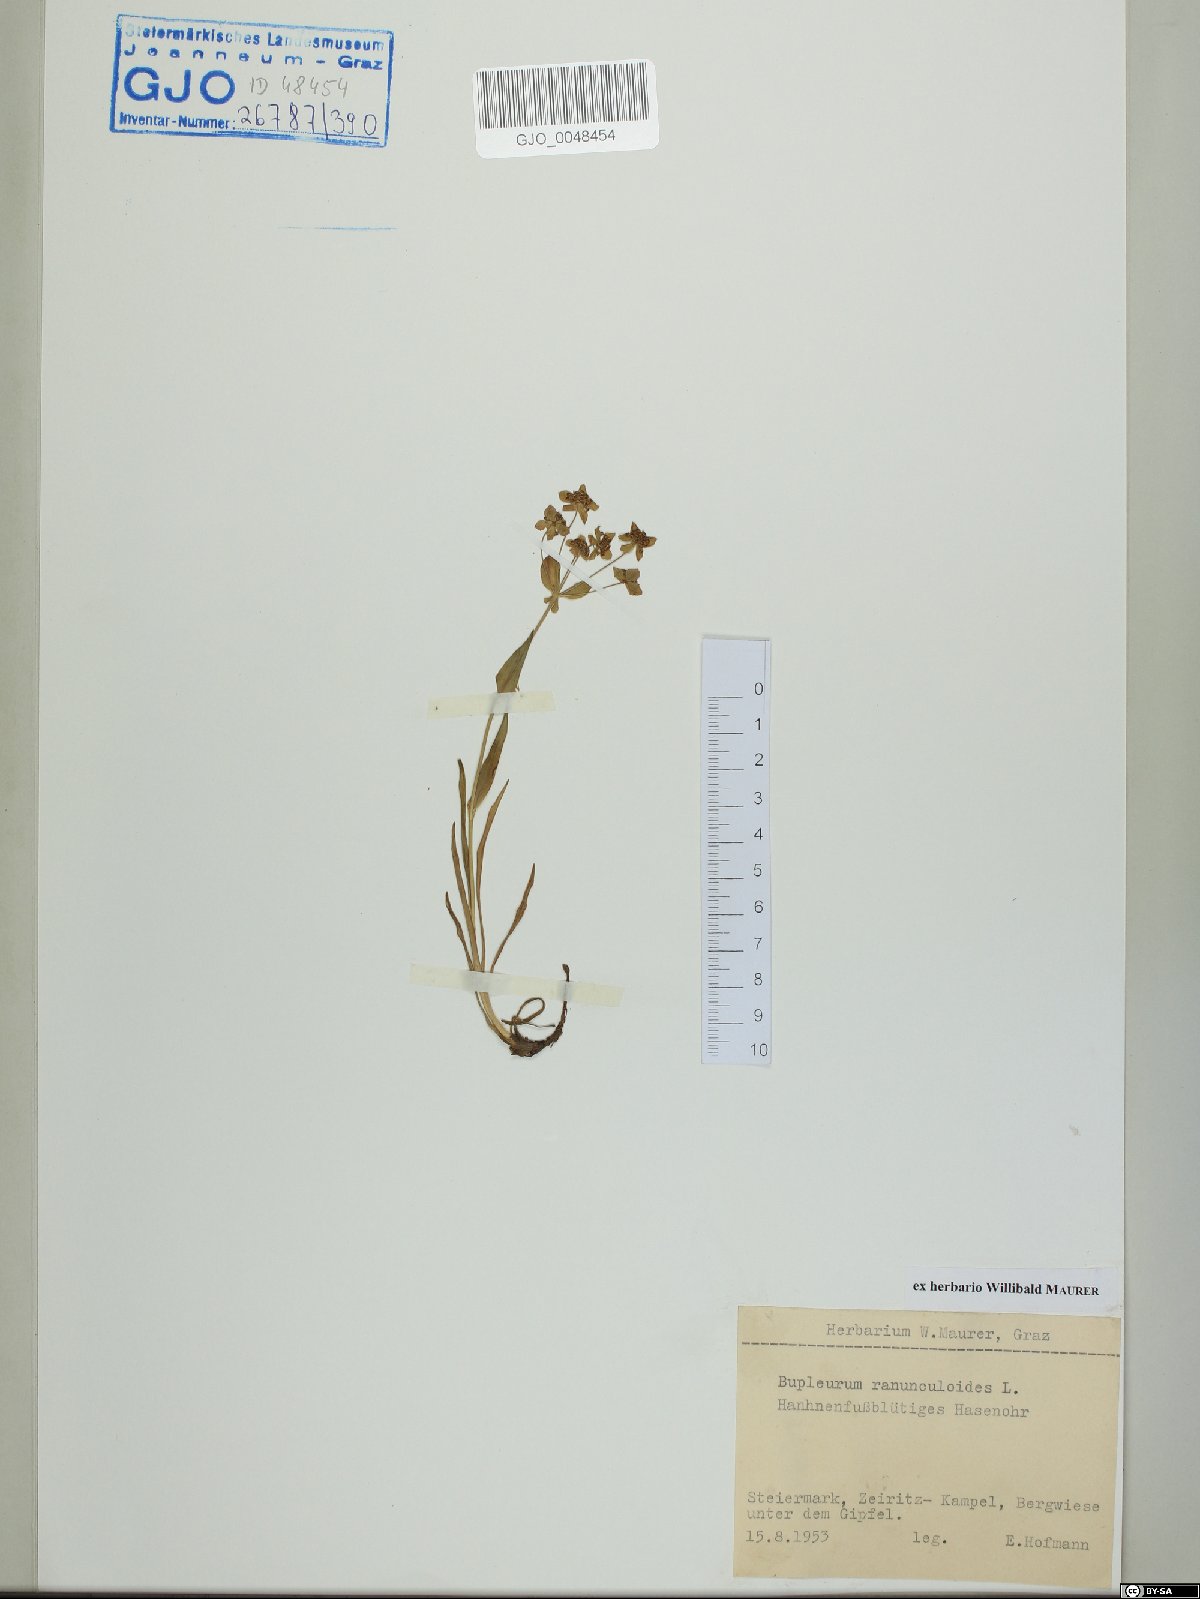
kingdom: Plantae
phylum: Tracheophyta
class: Magnoliopsida
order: Apiales
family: Apiaceae
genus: Bupleurum
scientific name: Bupleurum ranunculoides
